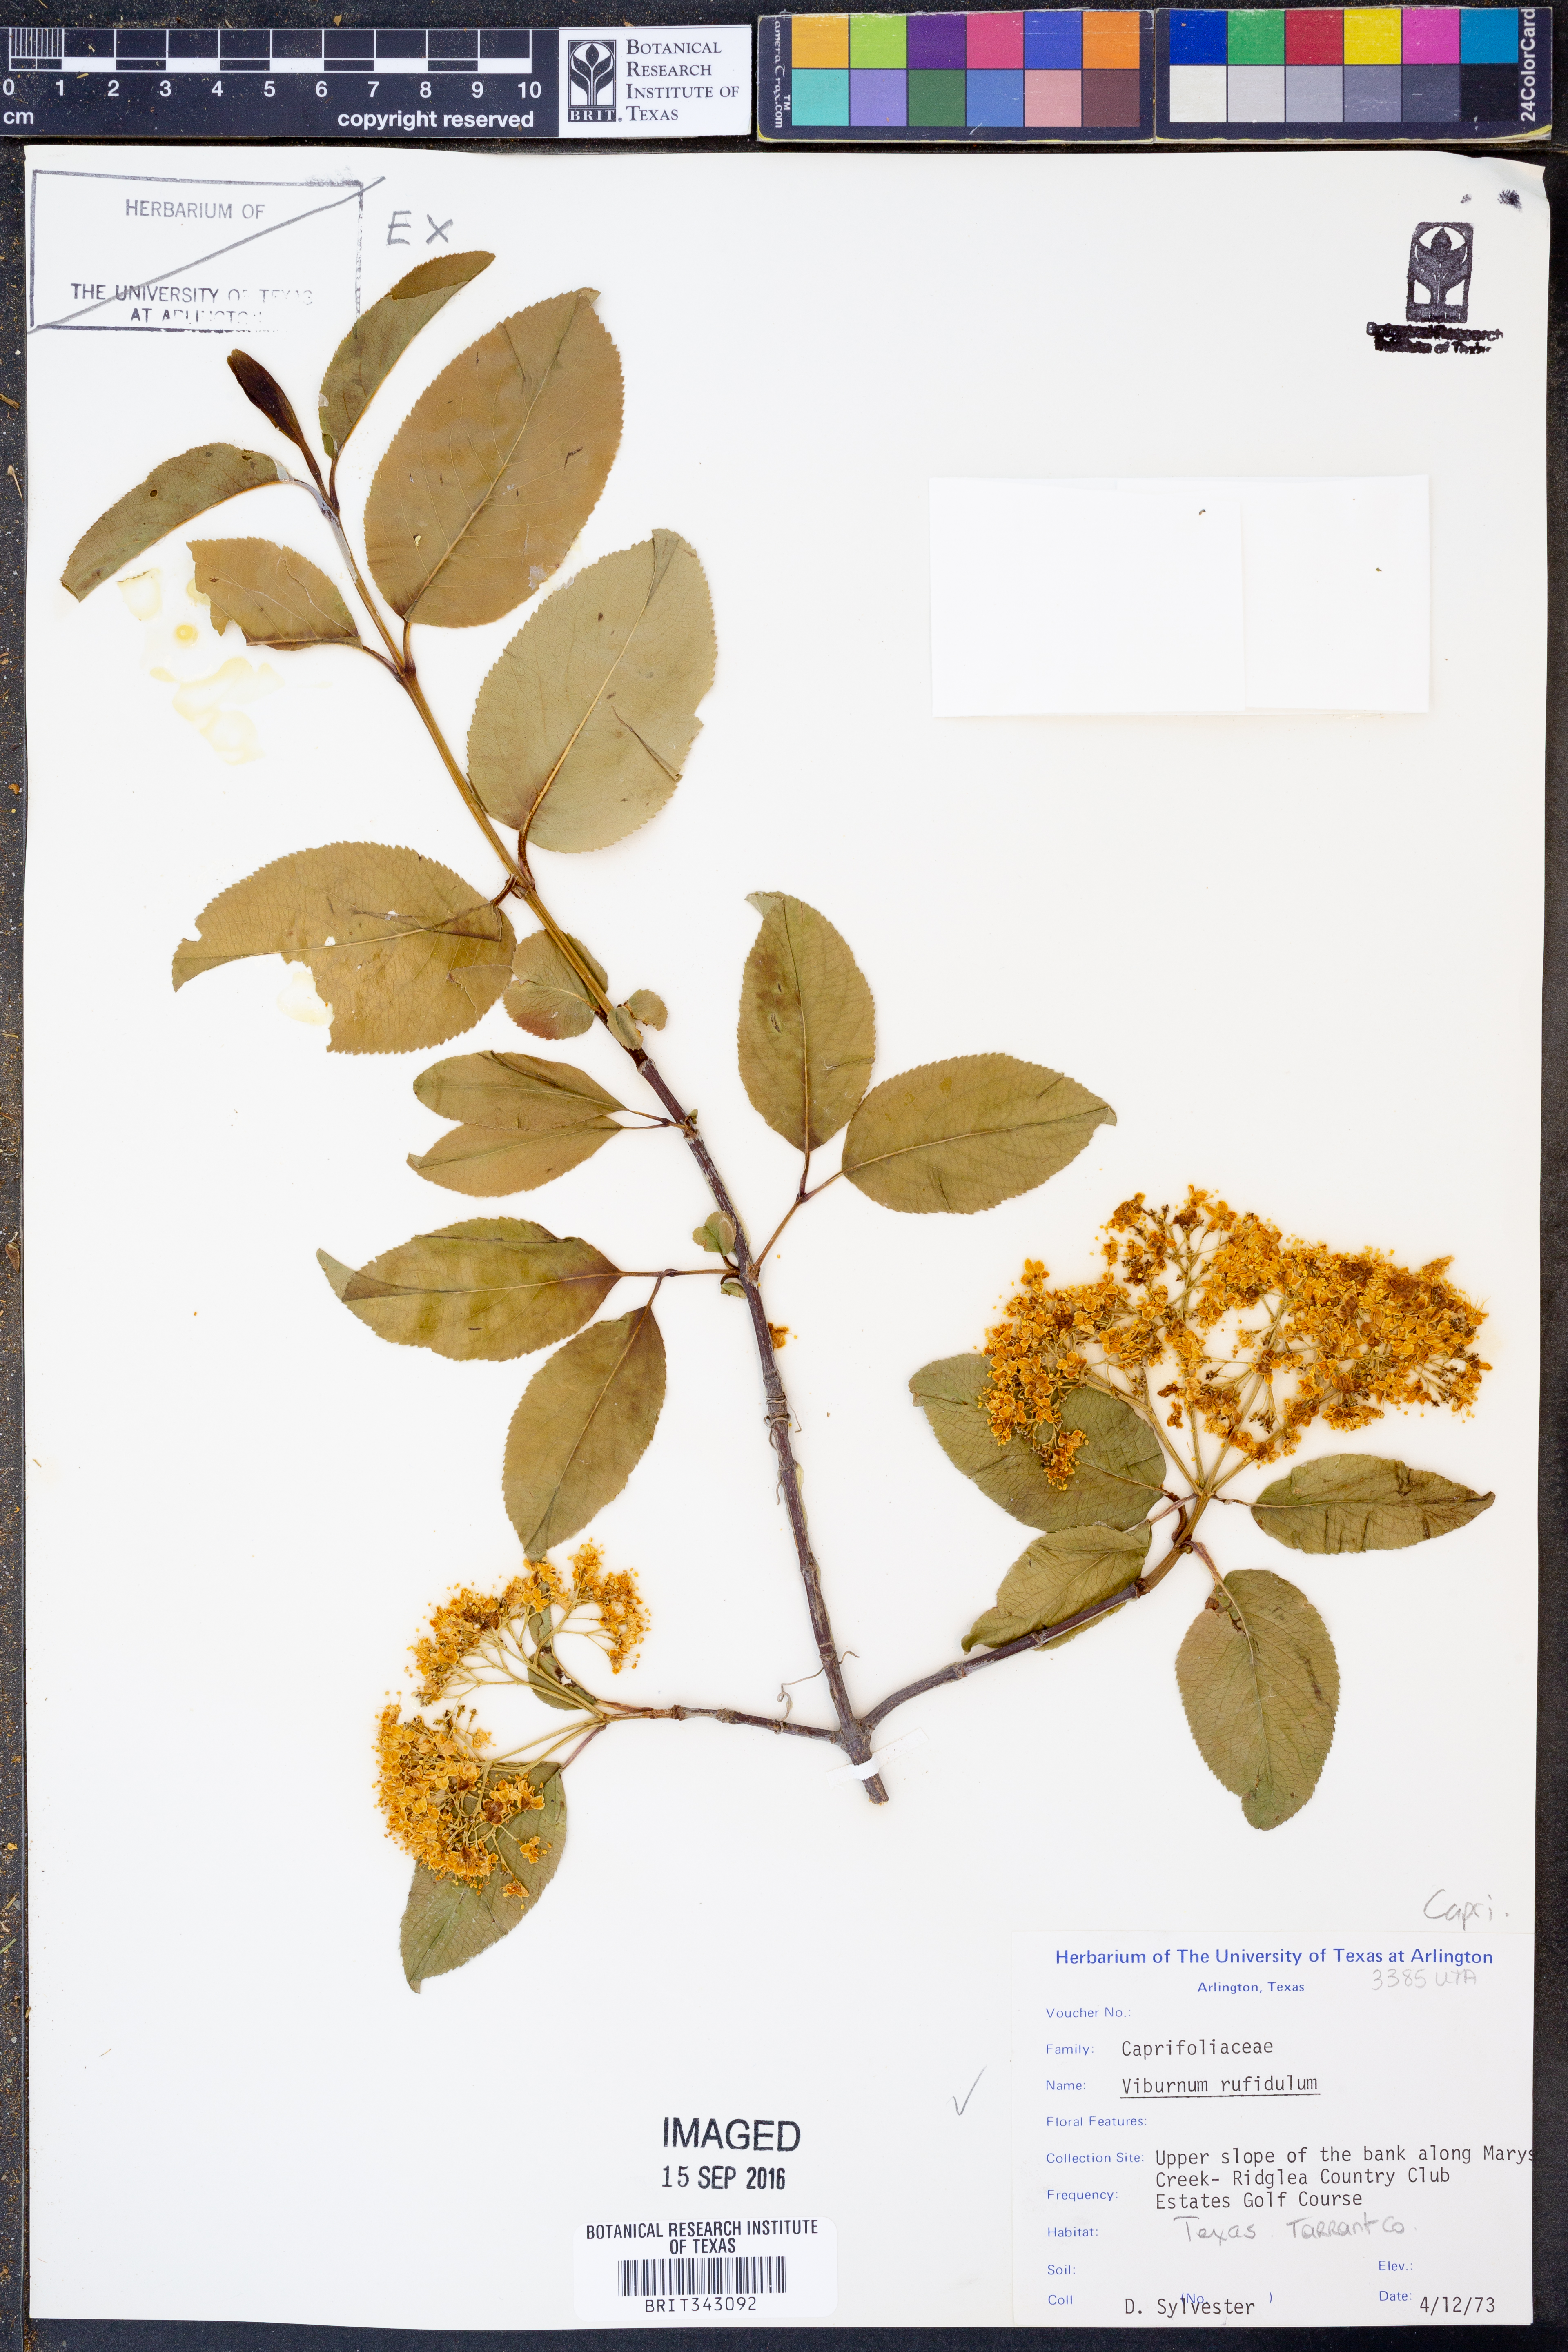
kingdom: Plantae
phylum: Tracheophyta
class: Magnoliopsida
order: Dipsacales
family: Viburnaceae
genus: Viburnum
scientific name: Viburnum rufidulum
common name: Blue haw
